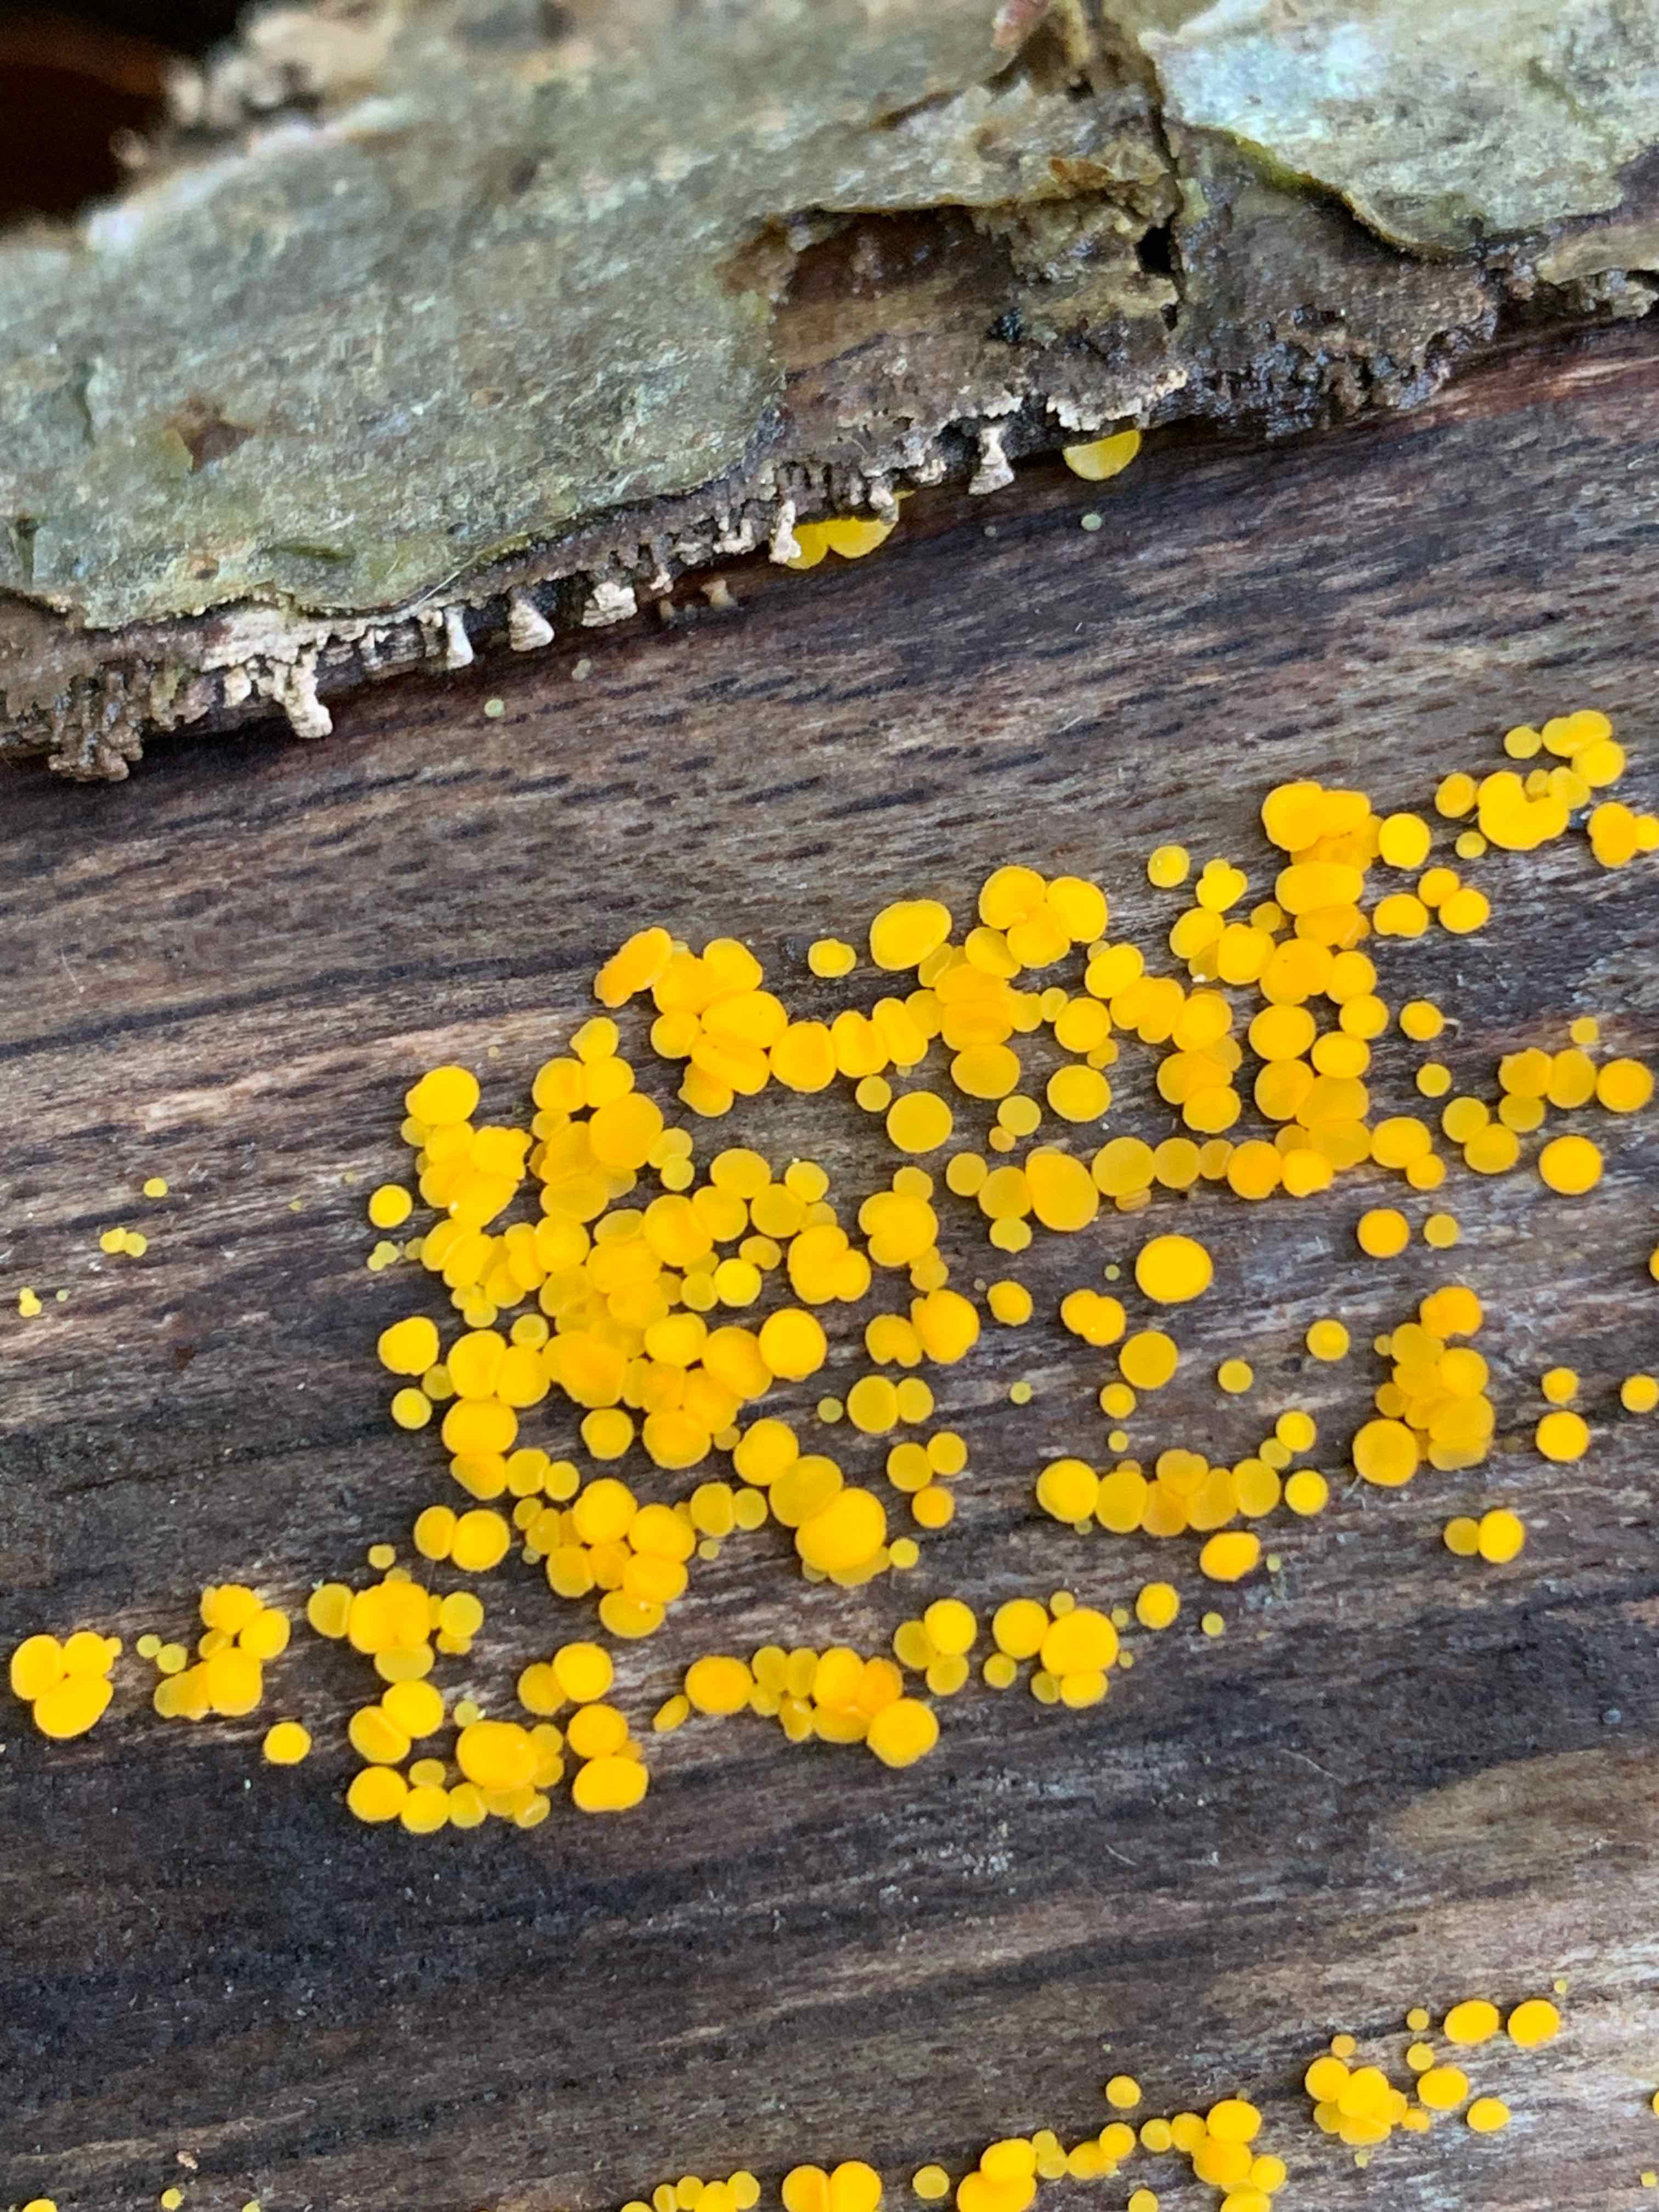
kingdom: Fungi
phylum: Ascomycota
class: Leotiomycetes
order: Helotiales
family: Pezizellaceae
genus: Calycina
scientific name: Calycina citrina
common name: almindelig gulskive
